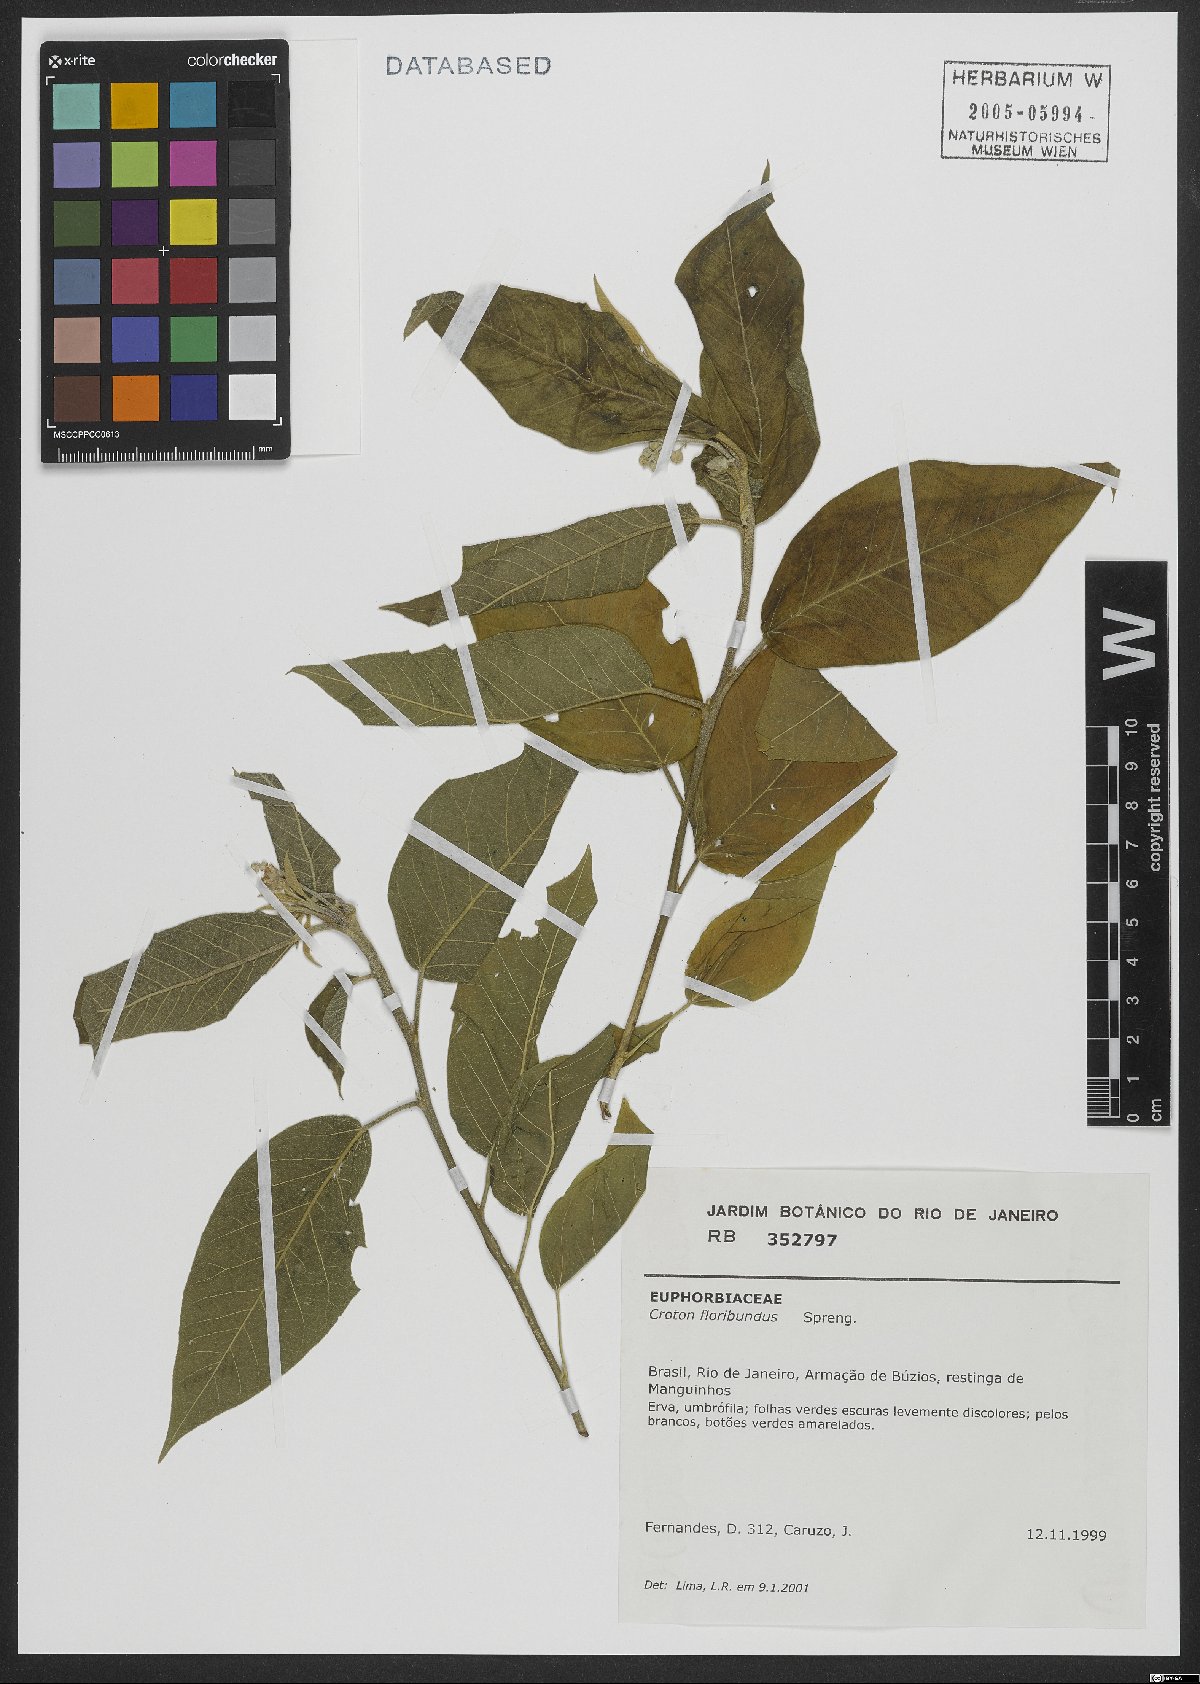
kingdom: Plantae
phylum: Tracheophyta
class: Magnoliopsida
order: Malpighiales
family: Euphorbiaceae
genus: Croton
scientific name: Croton floribundus
